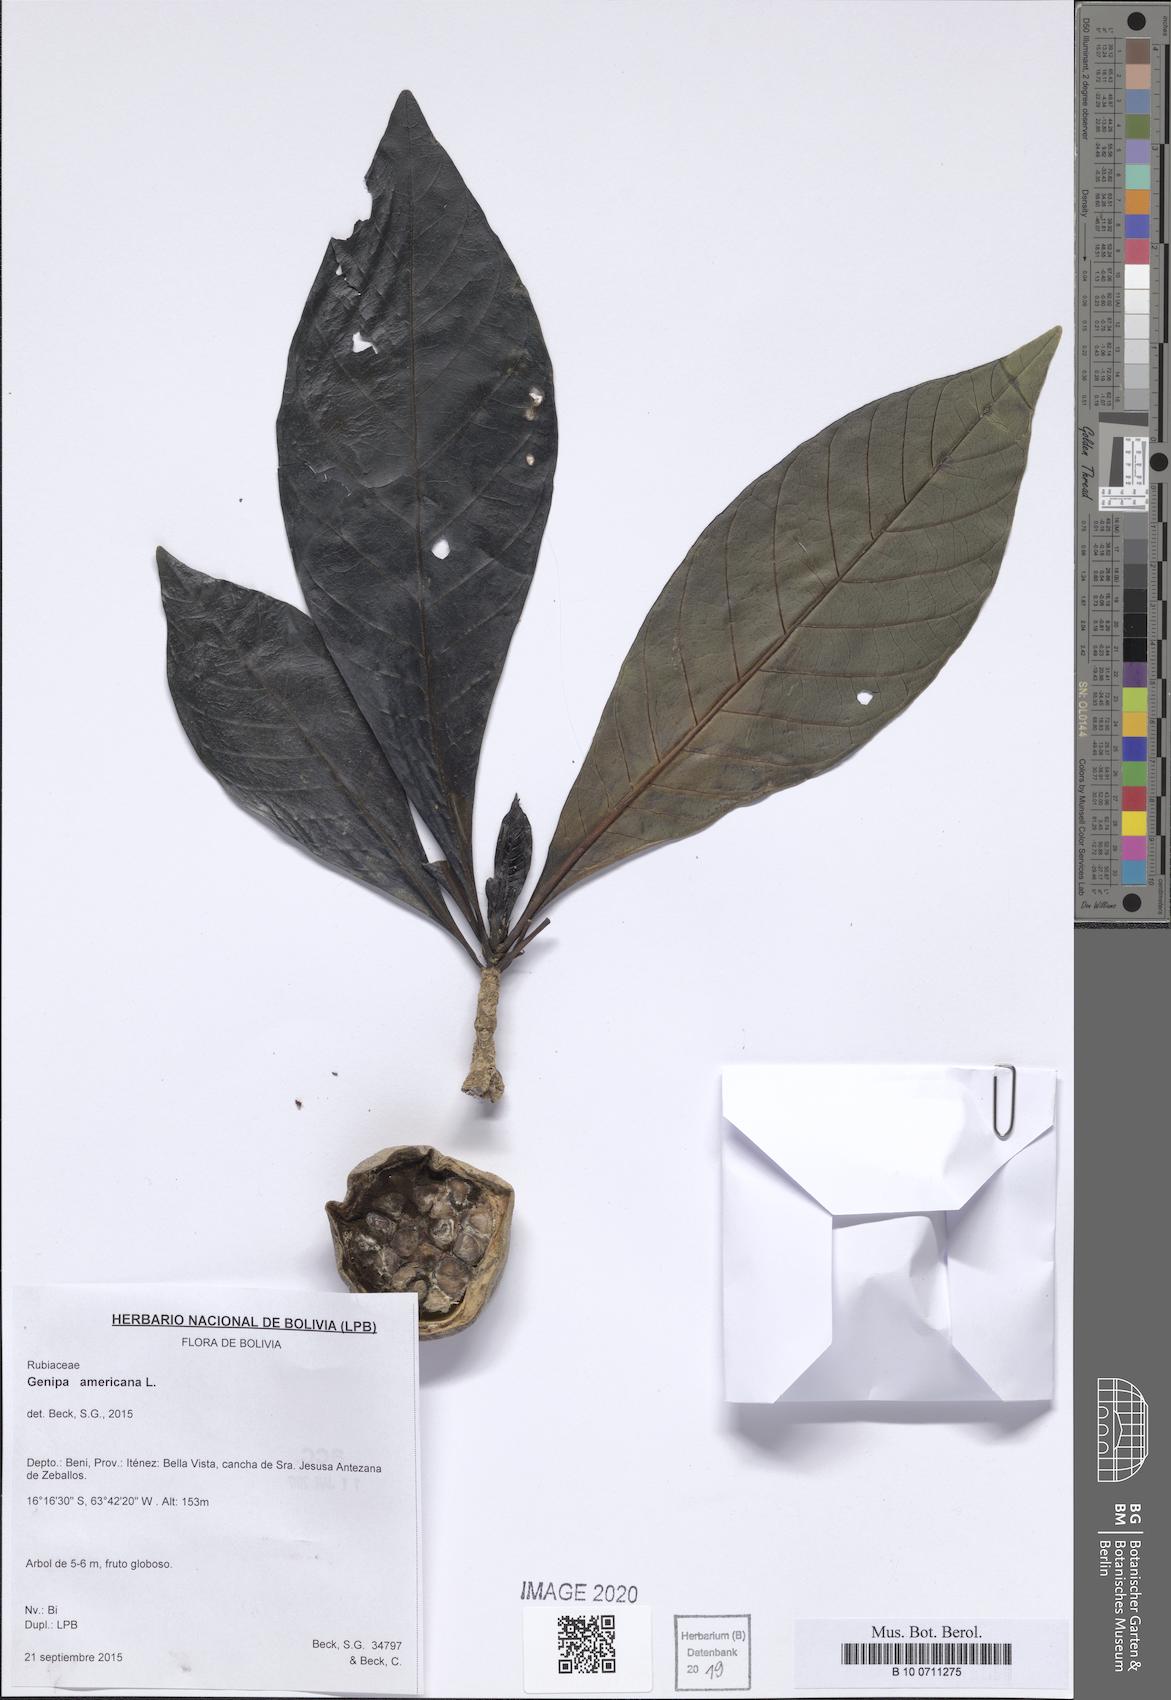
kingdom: Plantae
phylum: Tracheophyta
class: Magnoliopsida
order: Gentianales
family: Rubiaceae
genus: Genipa
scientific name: Genipa americana
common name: Genipap
